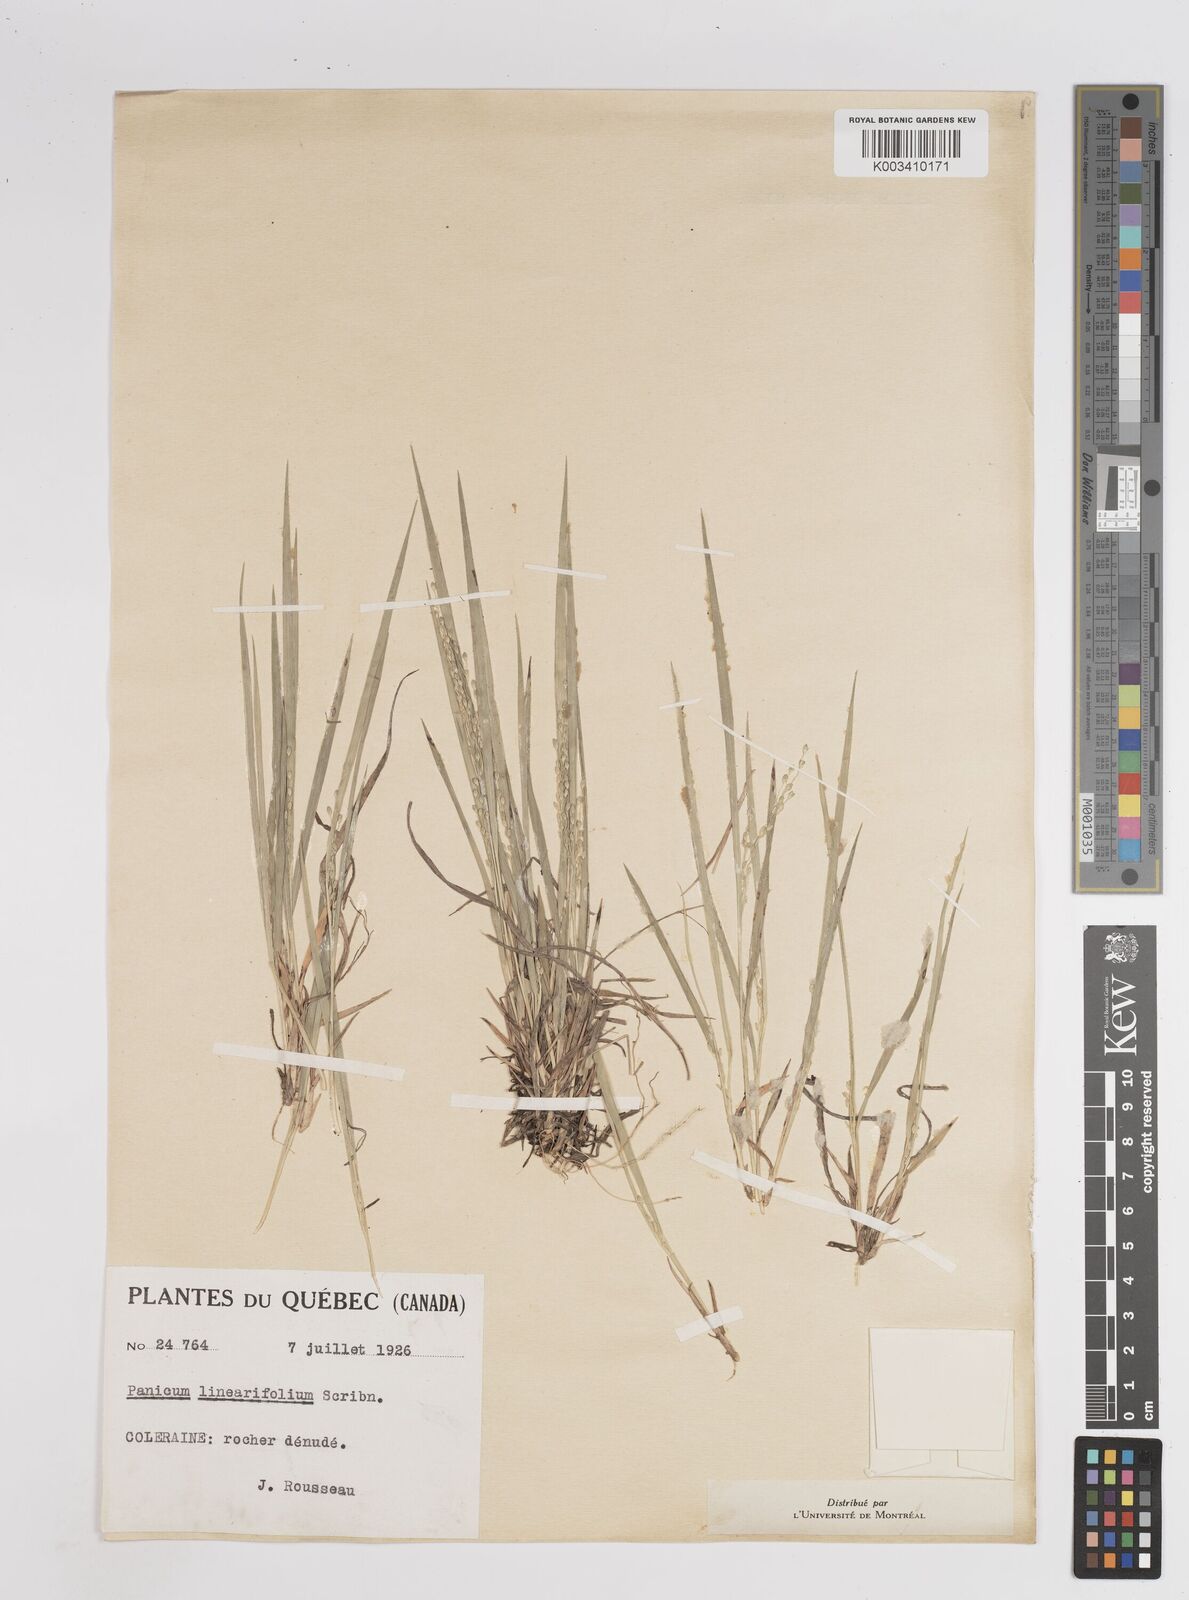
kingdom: Plantae
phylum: Tracheophyta
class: Liliopsida
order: Poales
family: Poaceae
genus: Dichanthelium
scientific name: Dichanthelium depauperatum
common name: Depauperate panicgrass
